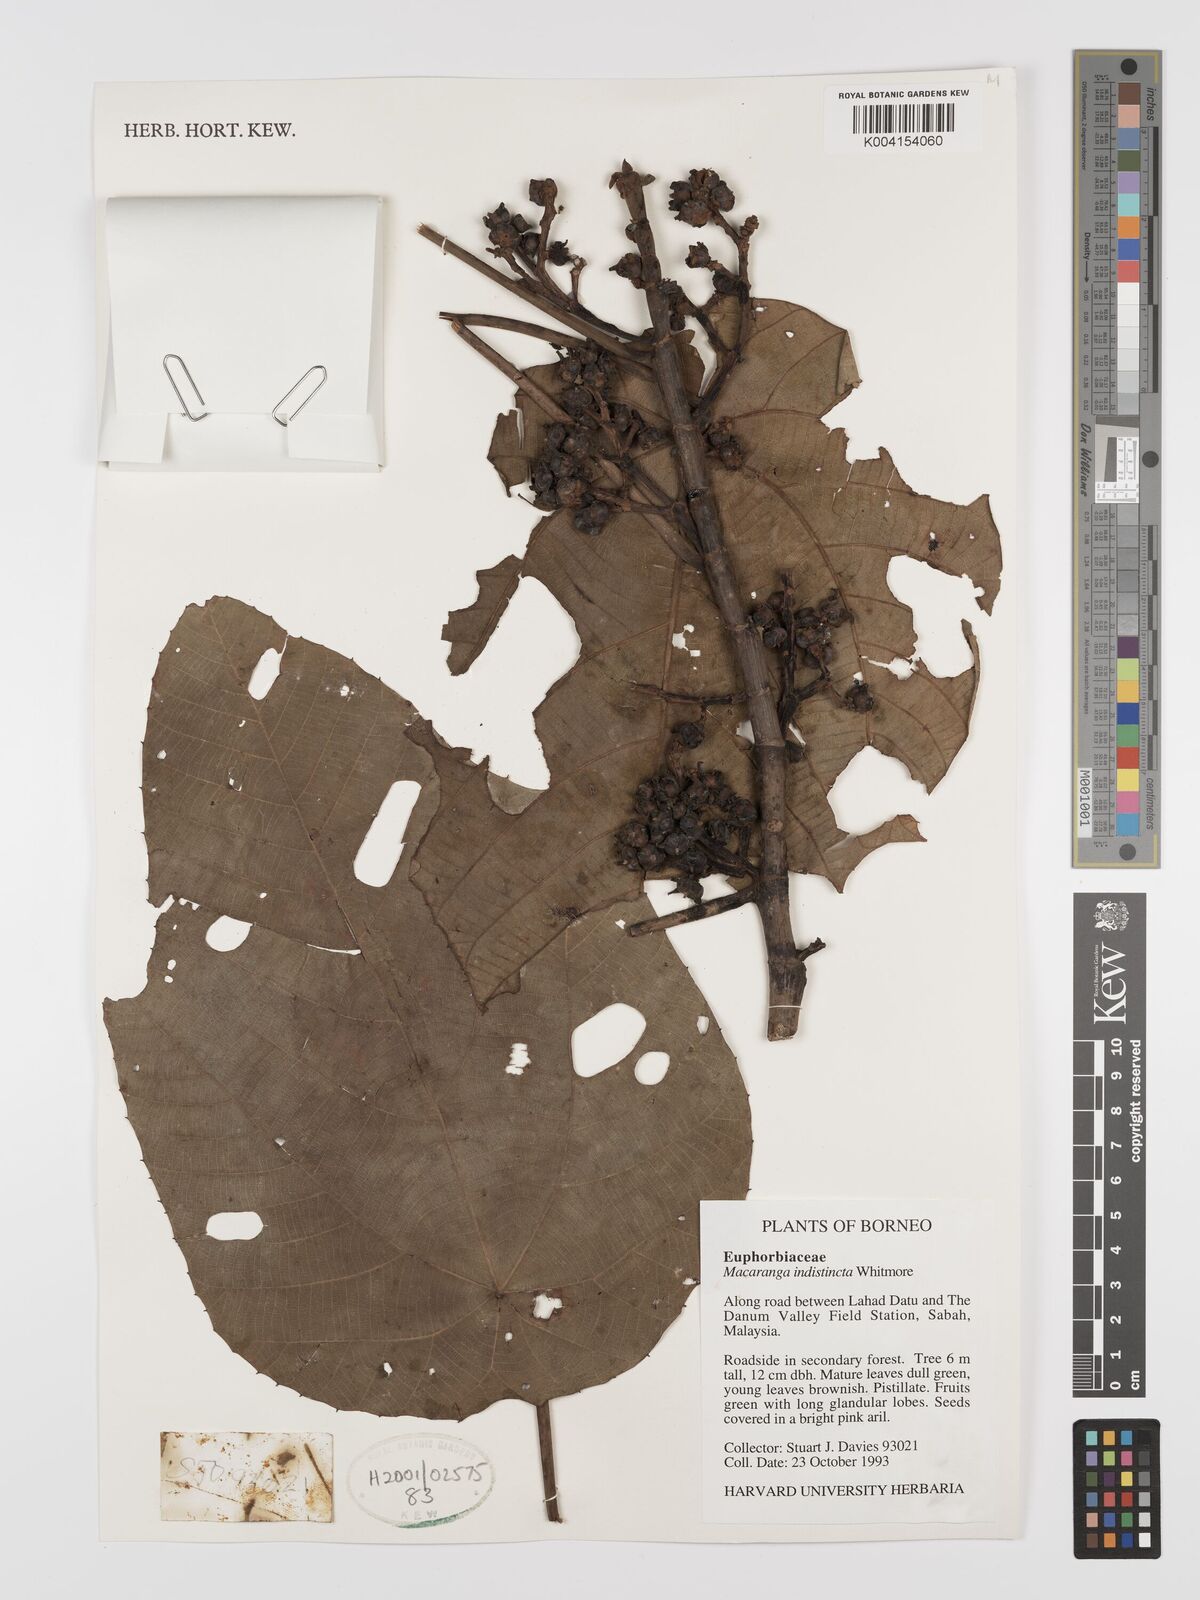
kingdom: Plantae
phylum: Tracheophyta
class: Magnoliopsida
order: Malpighiales
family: Euphorbiaceae
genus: Macaranga
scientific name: Macaranga indistincta
